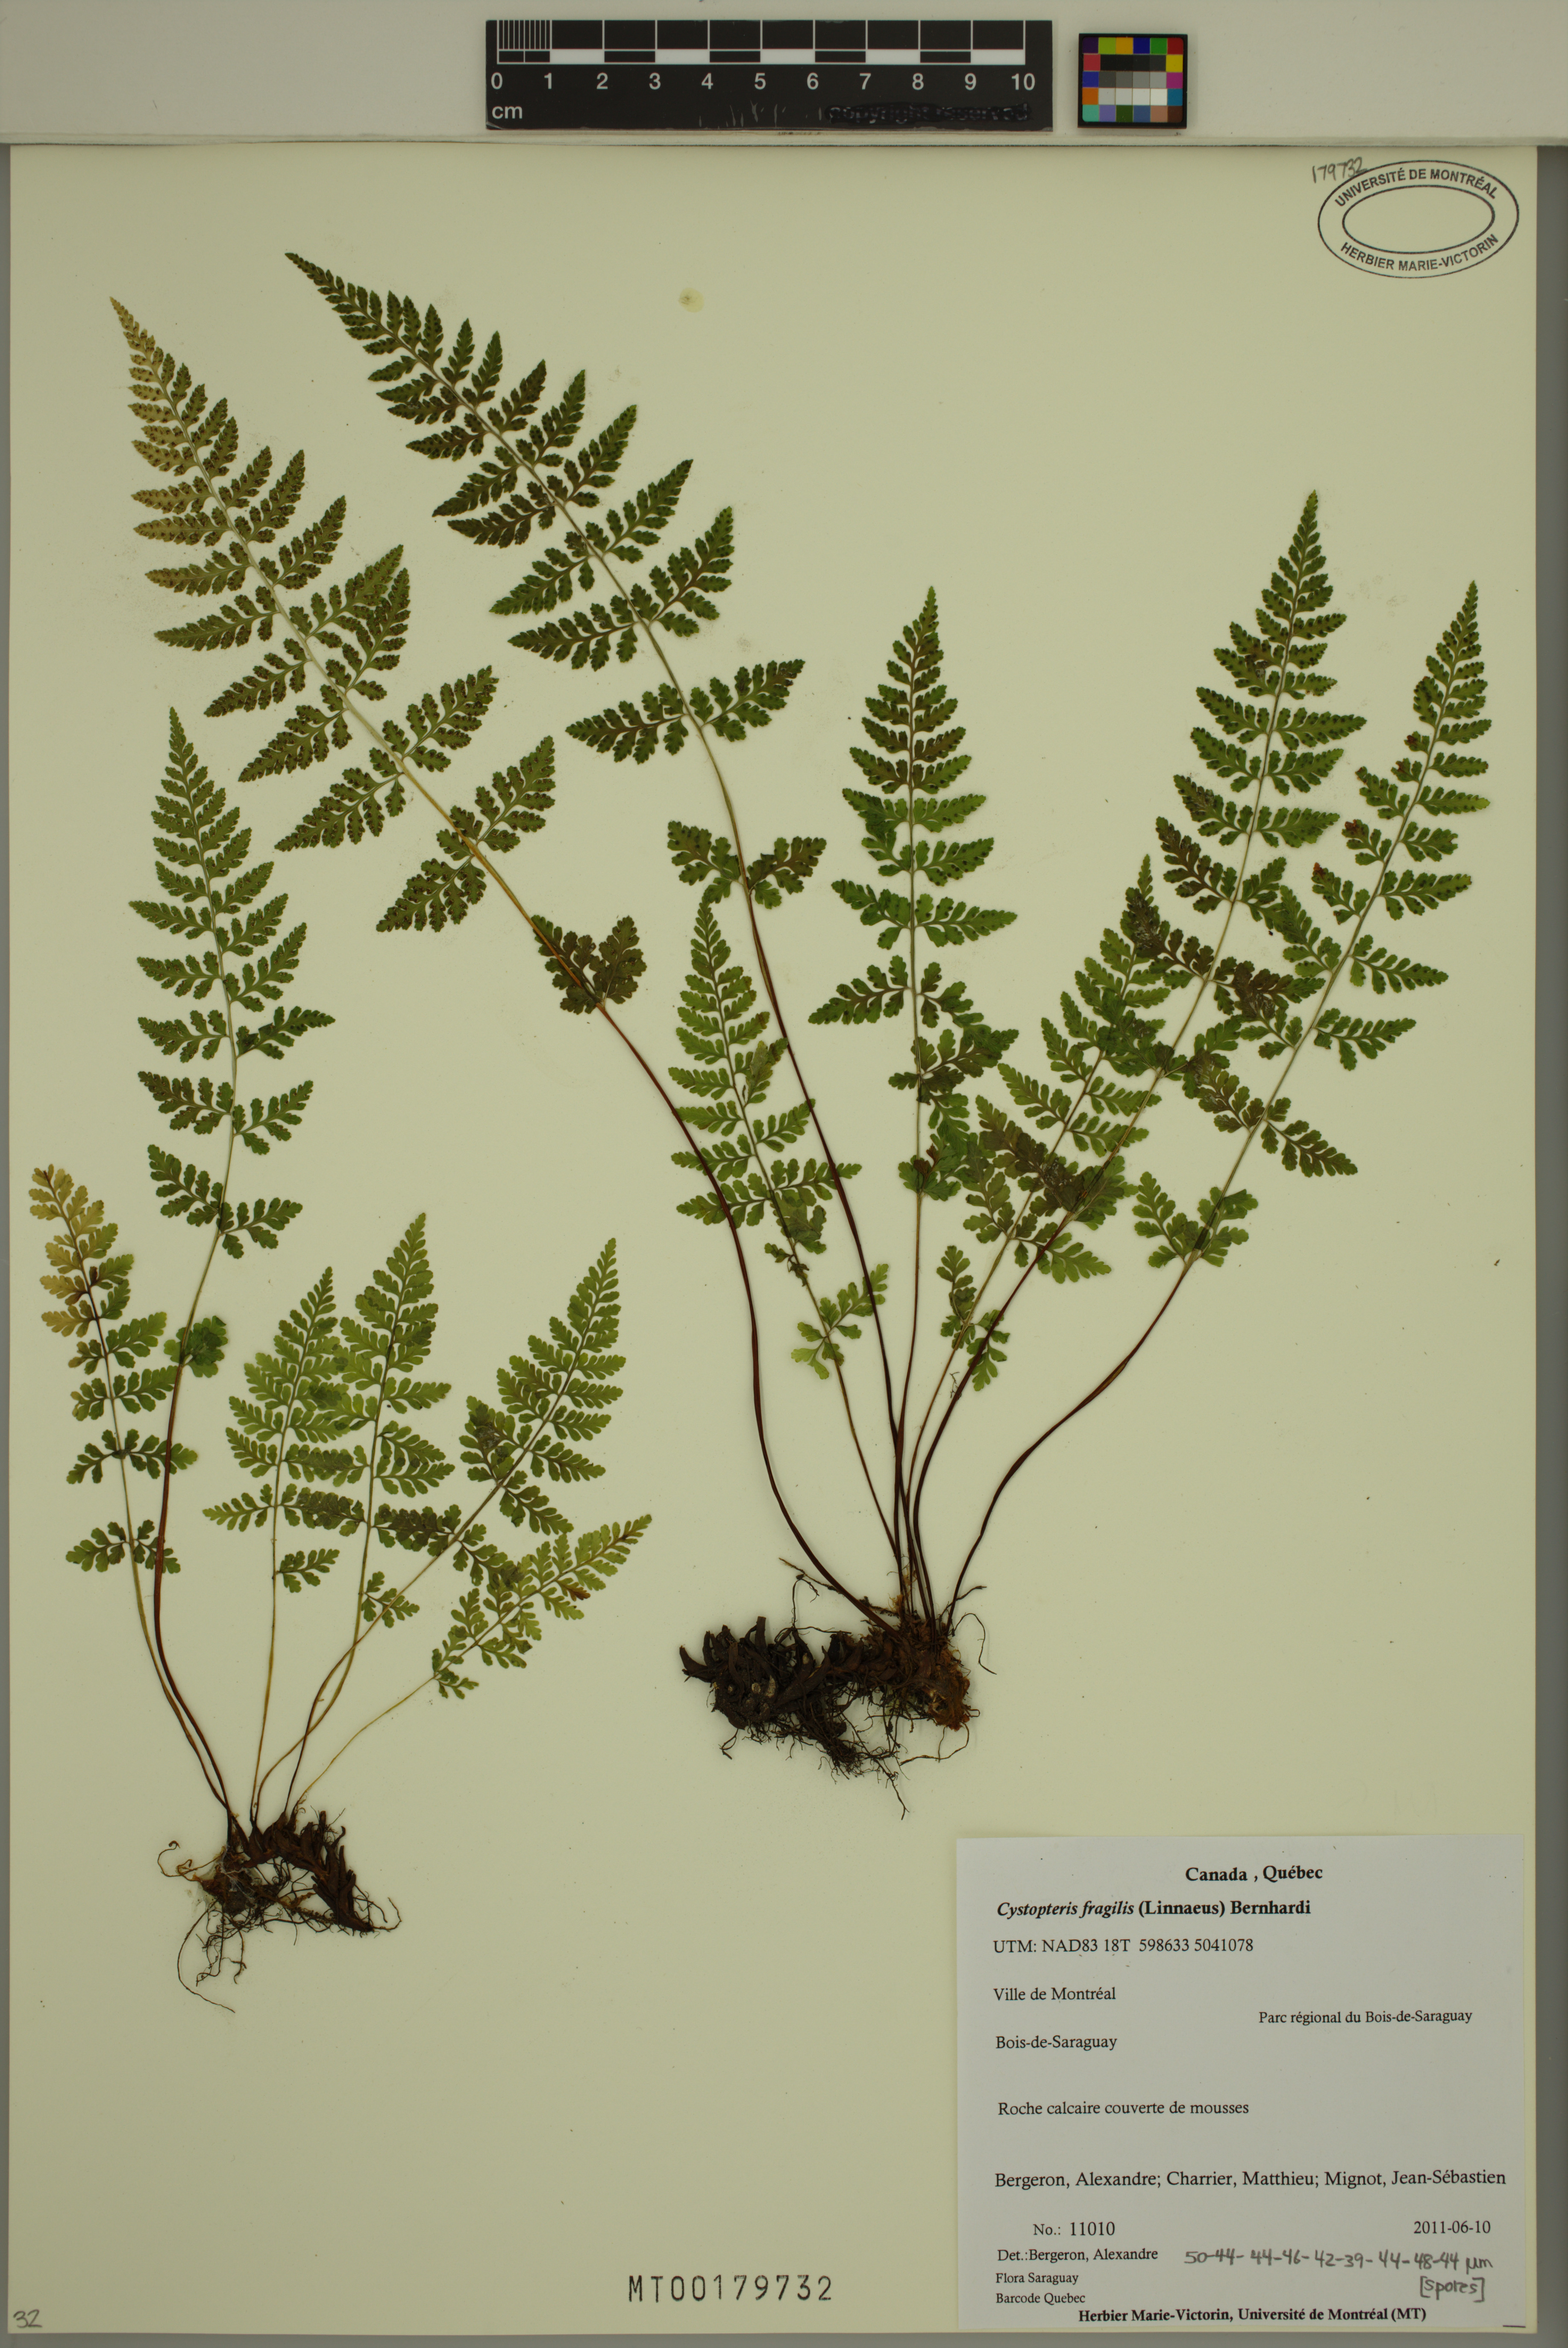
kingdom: Plantae
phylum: Tracheophyta
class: Polypodiopsida
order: Polypodiales
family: Cystopteridaceae
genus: Cystopteris
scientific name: Cystopteris fragilis
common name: Brittle bladder fern
